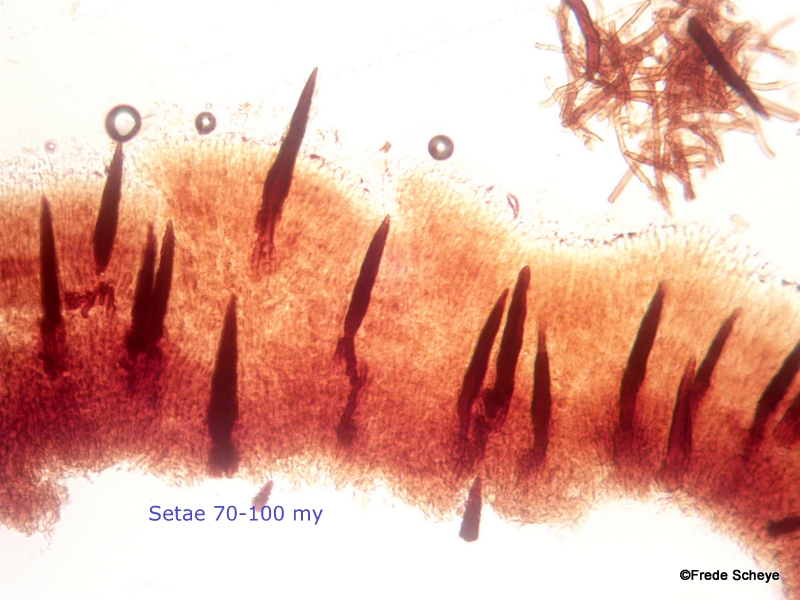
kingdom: Fungi
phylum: Basidiomycota
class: Agaricomycetes
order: Hymenochaetales
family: Hymenochaetaceae
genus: Hydnoporia
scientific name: Hydnoporia tabacina
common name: tobaksbrun ruslædersvamp
